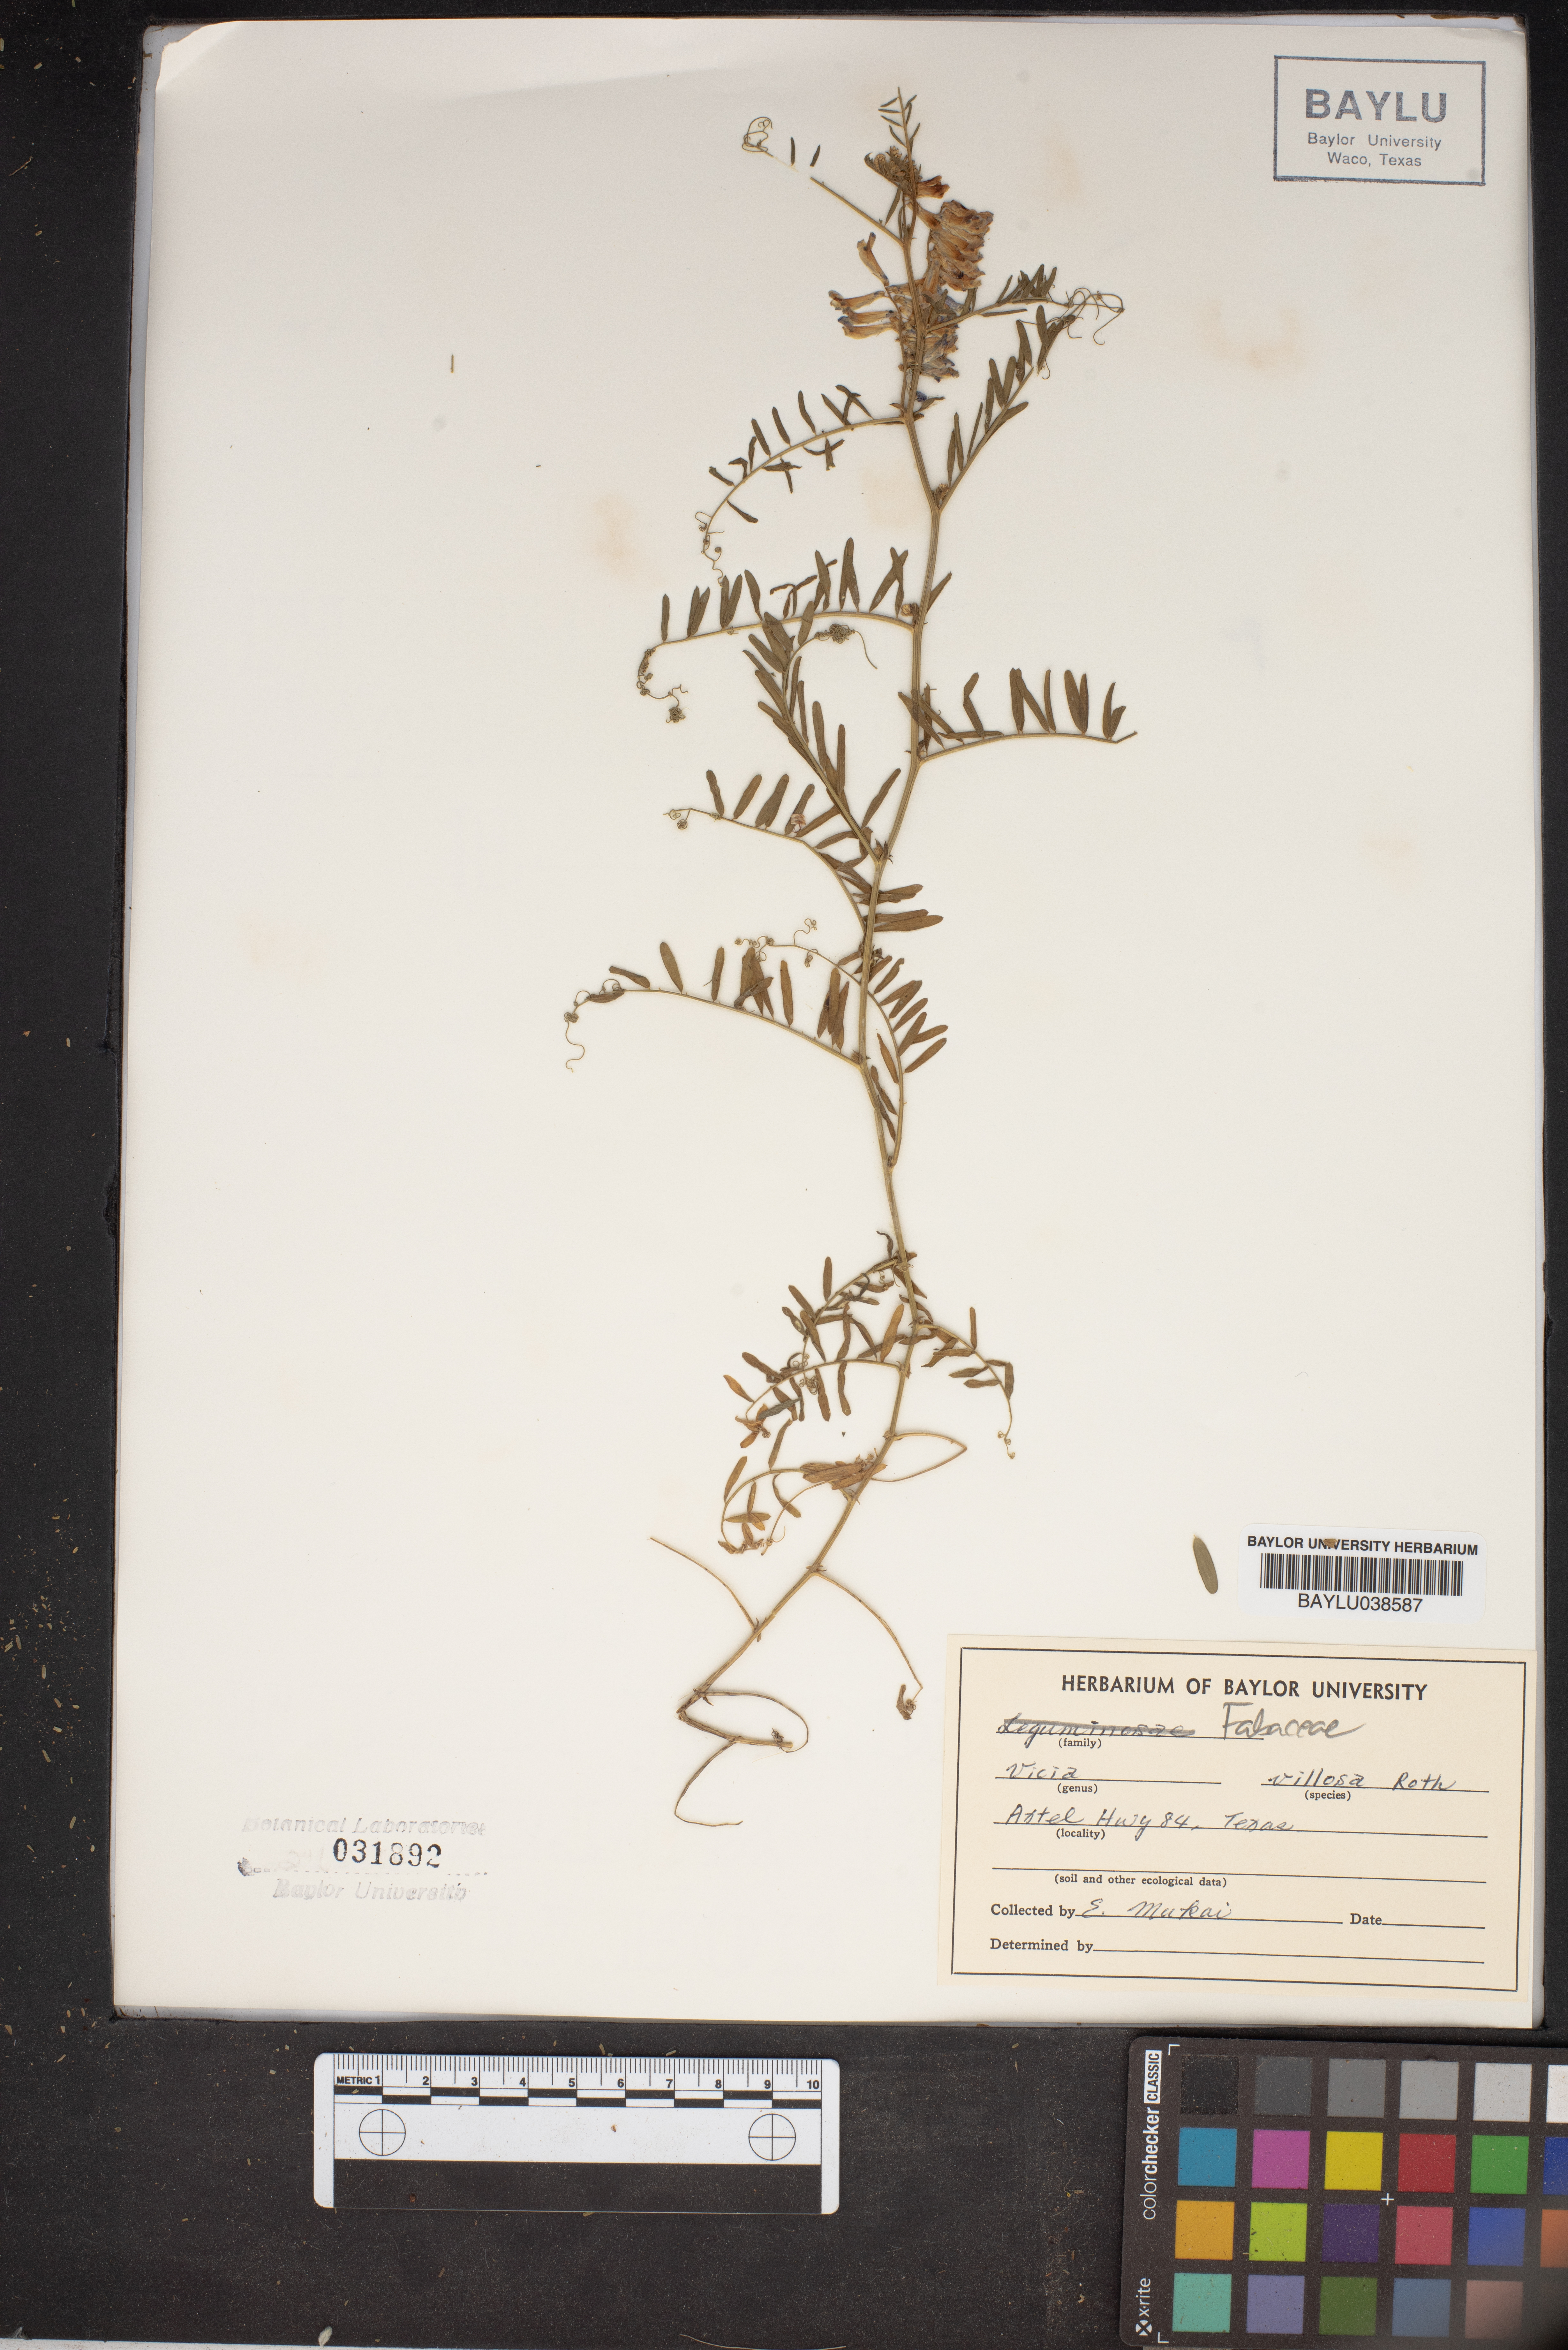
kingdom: Plantae
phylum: Tracheophyta
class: Magnoliopsida
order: Fabales
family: Fabaceae
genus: Vicia
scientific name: Vicia villosa
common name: Fodder vetch
